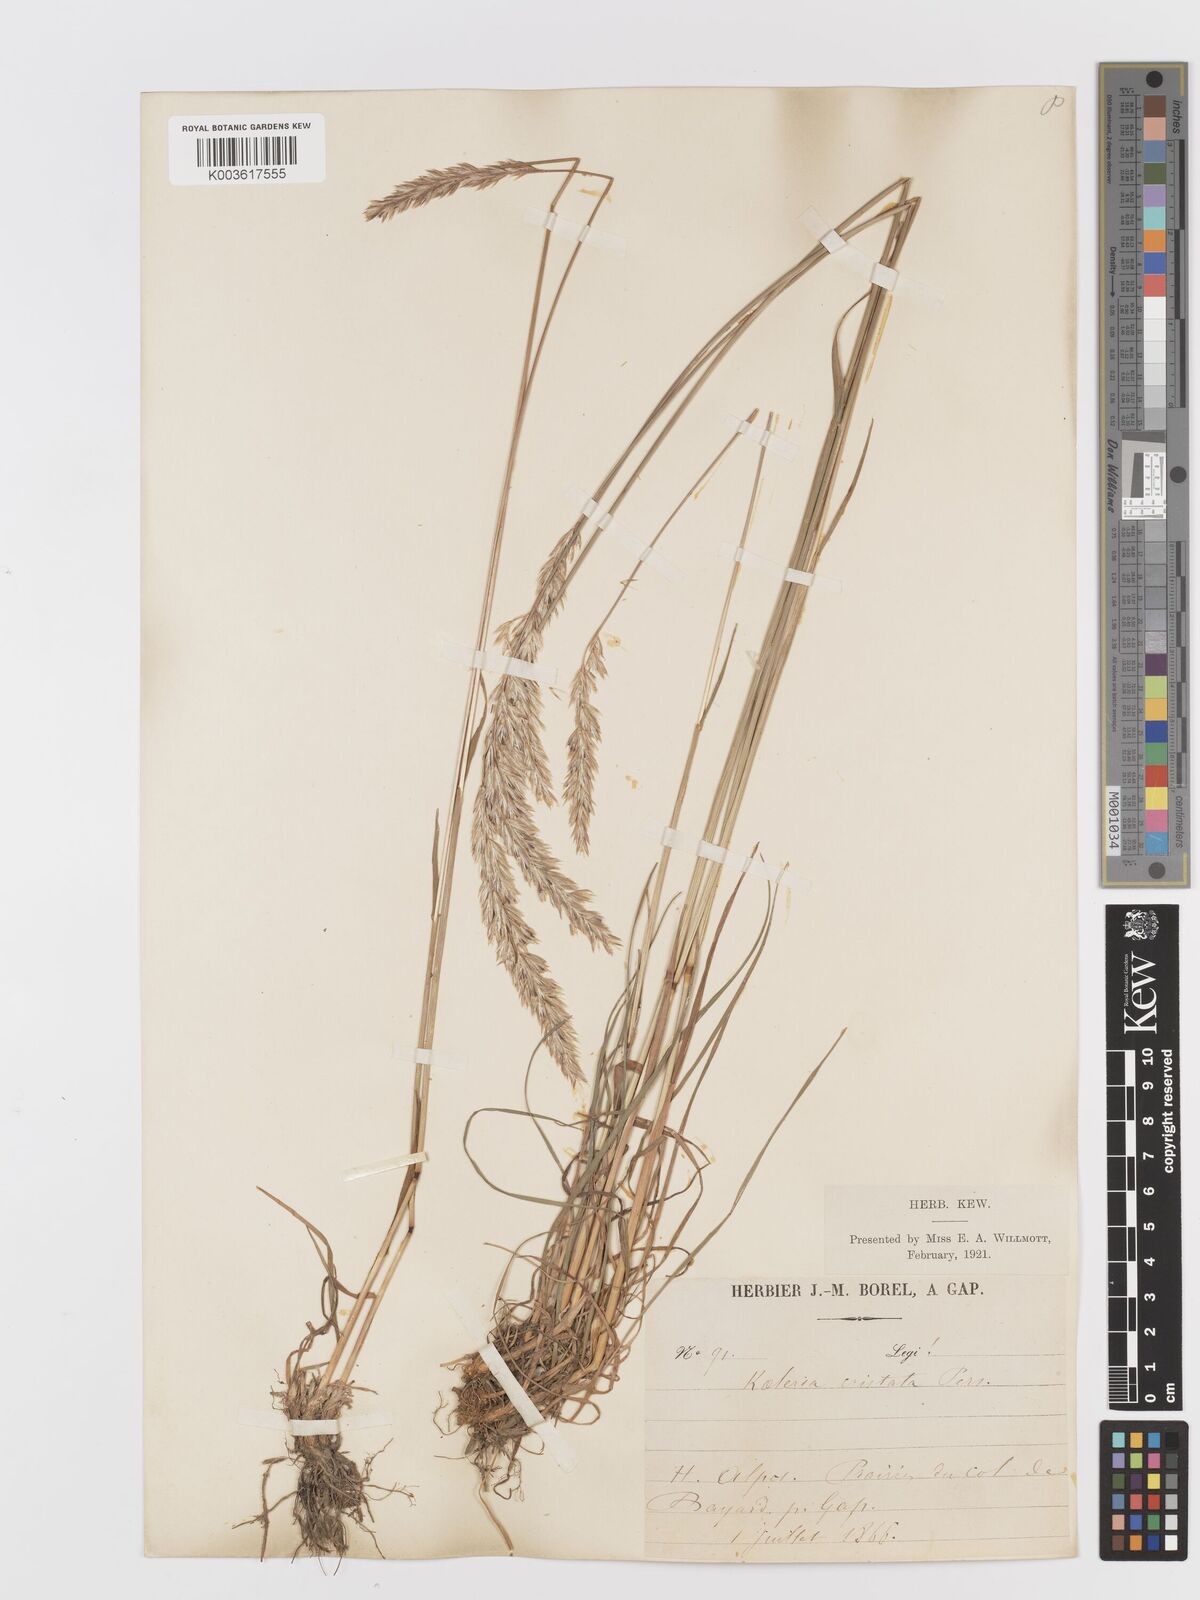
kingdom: Plantae
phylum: Tracheophyta
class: Liliopsida
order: Poales
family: Poaceae
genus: Koeleria
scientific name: Koeleria
